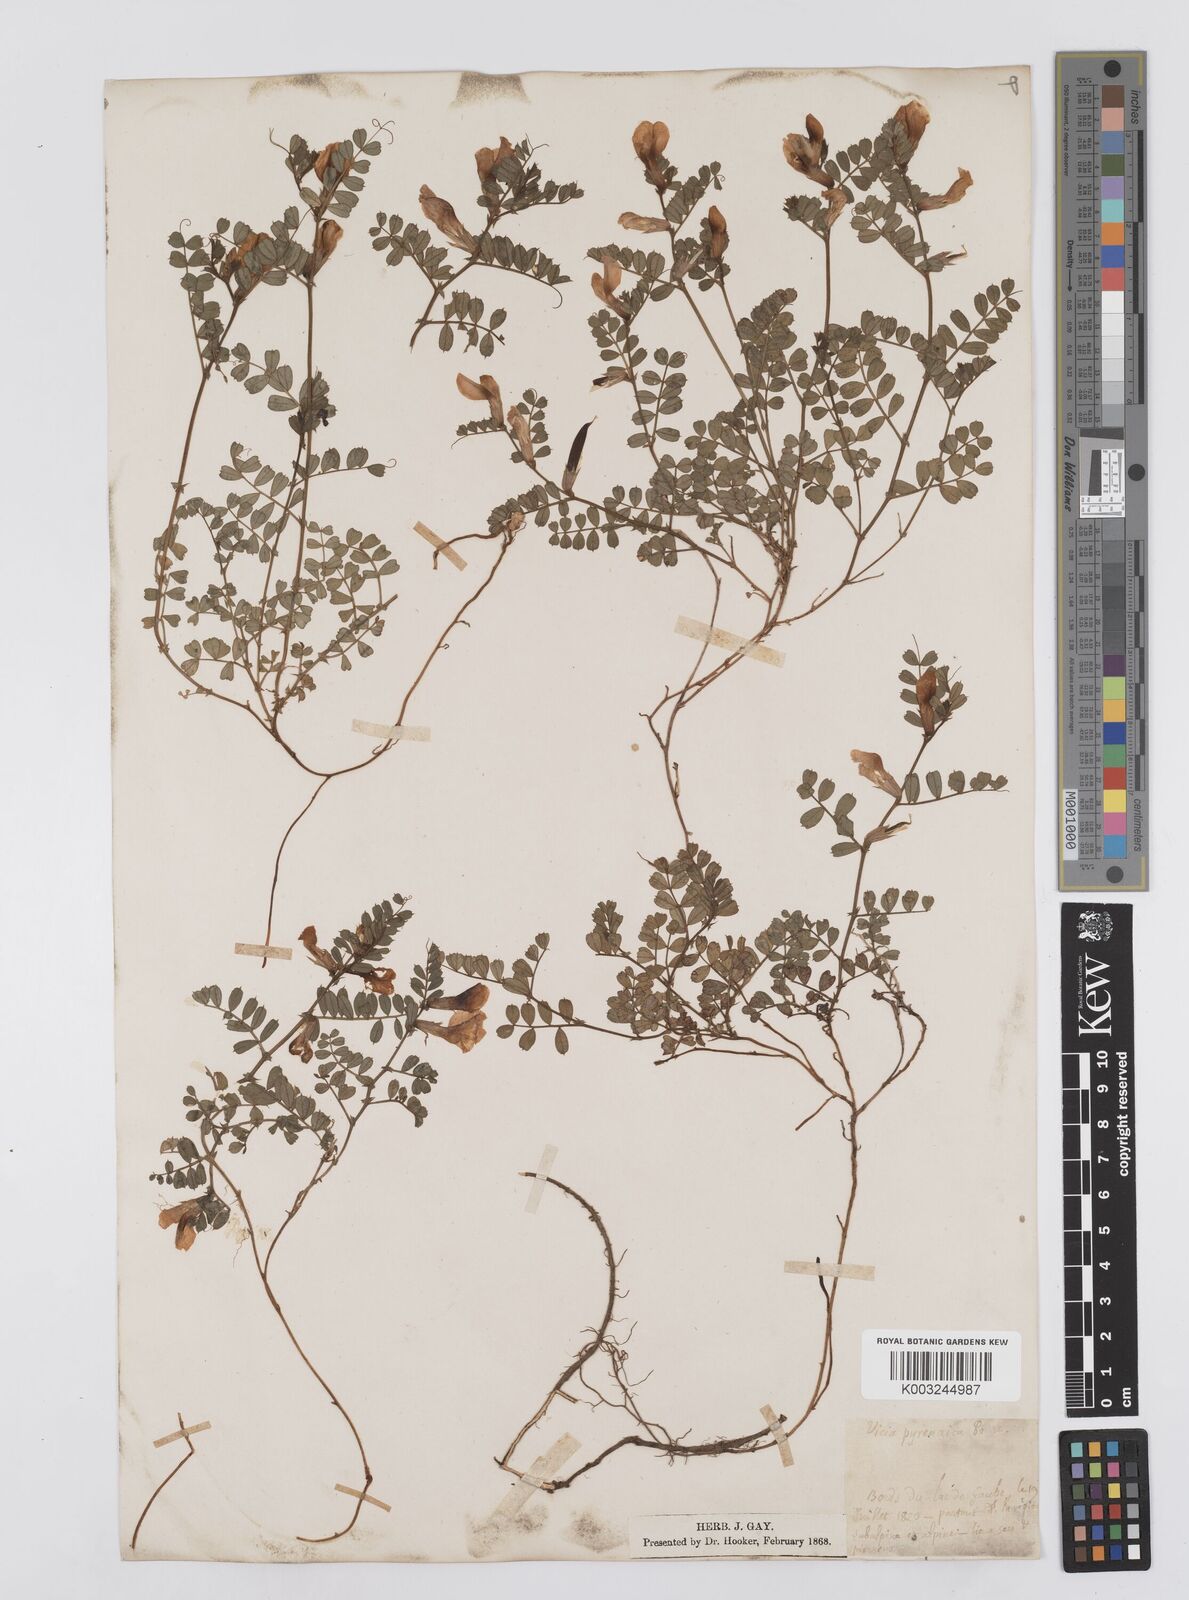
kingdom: Plantae
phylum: Tracheophyta
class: Magnoliopsida
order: Fabales
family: Fabaceae
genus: Vicia
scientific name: Vicia pyrenaica
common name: Pyrenean vetch
